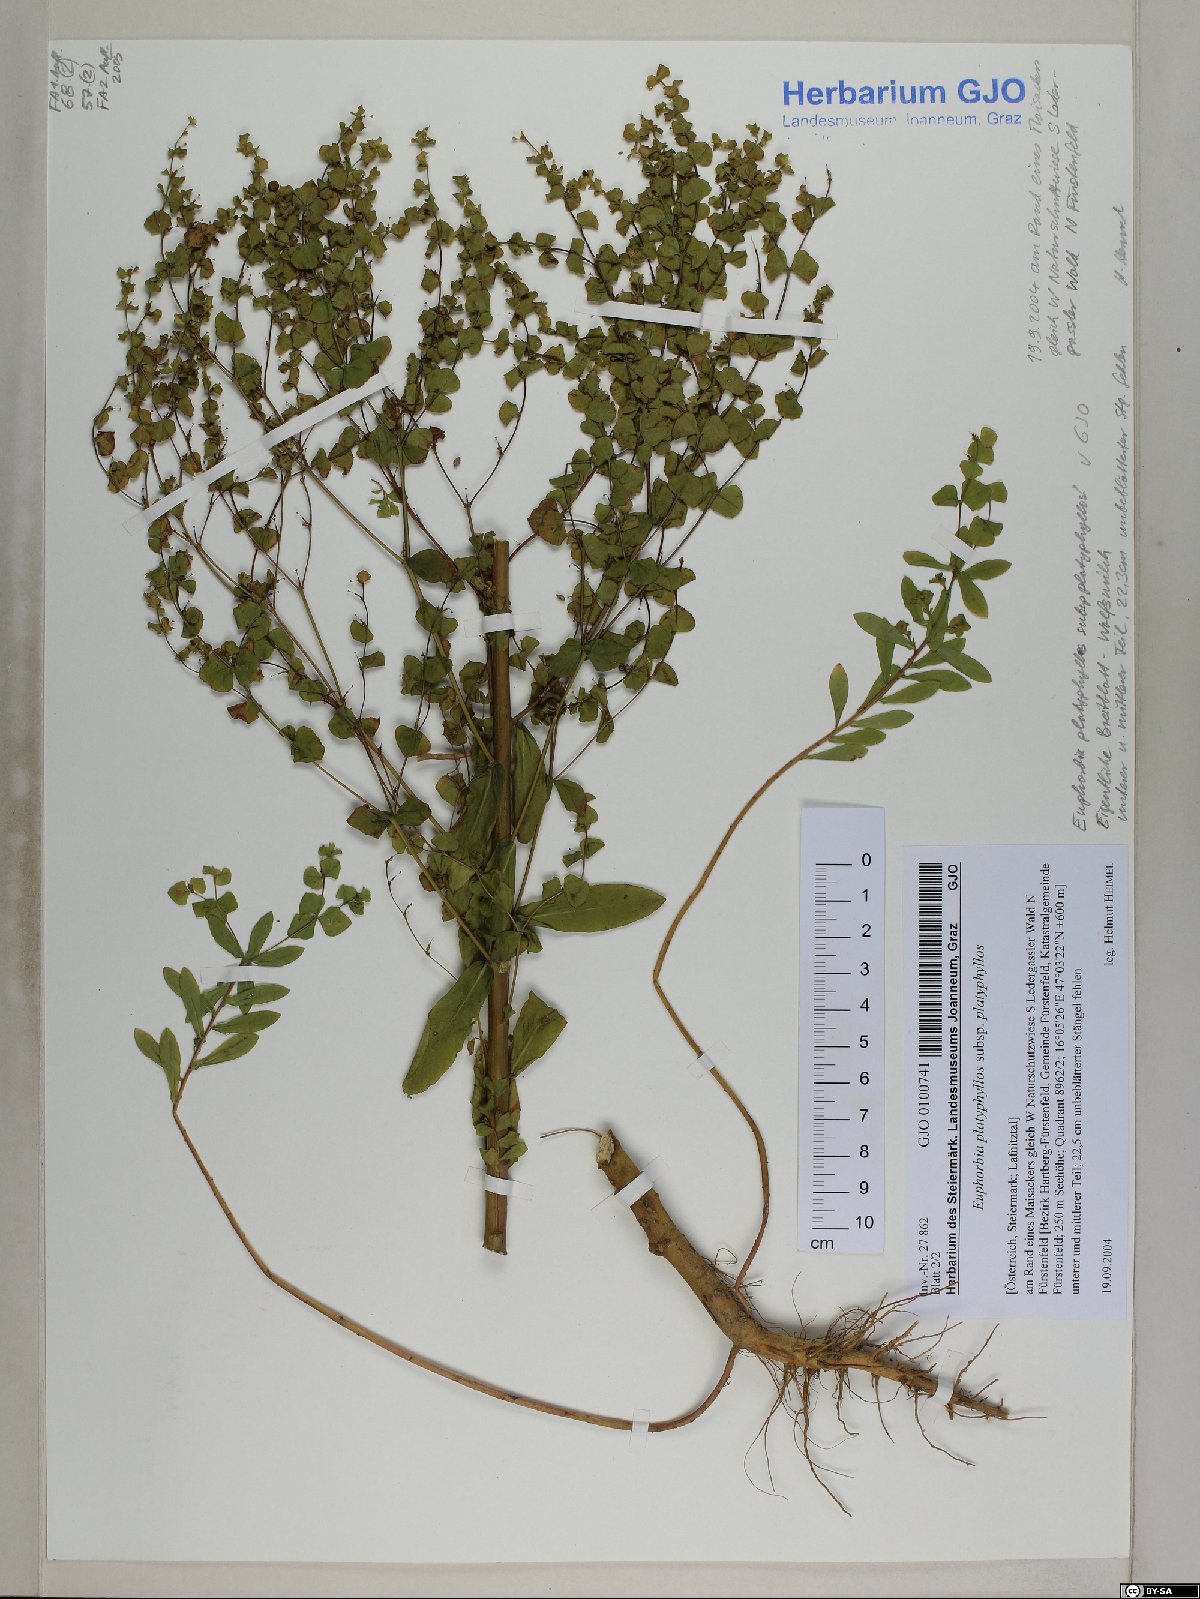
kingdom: Plantae
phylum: Tracheophyta
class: Magnoliopsida
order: Malpighiales
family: Euphorbiaceae
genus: Euphorbia
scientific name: Euphorbia platyphyllos
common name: Broad-leaved spurge
